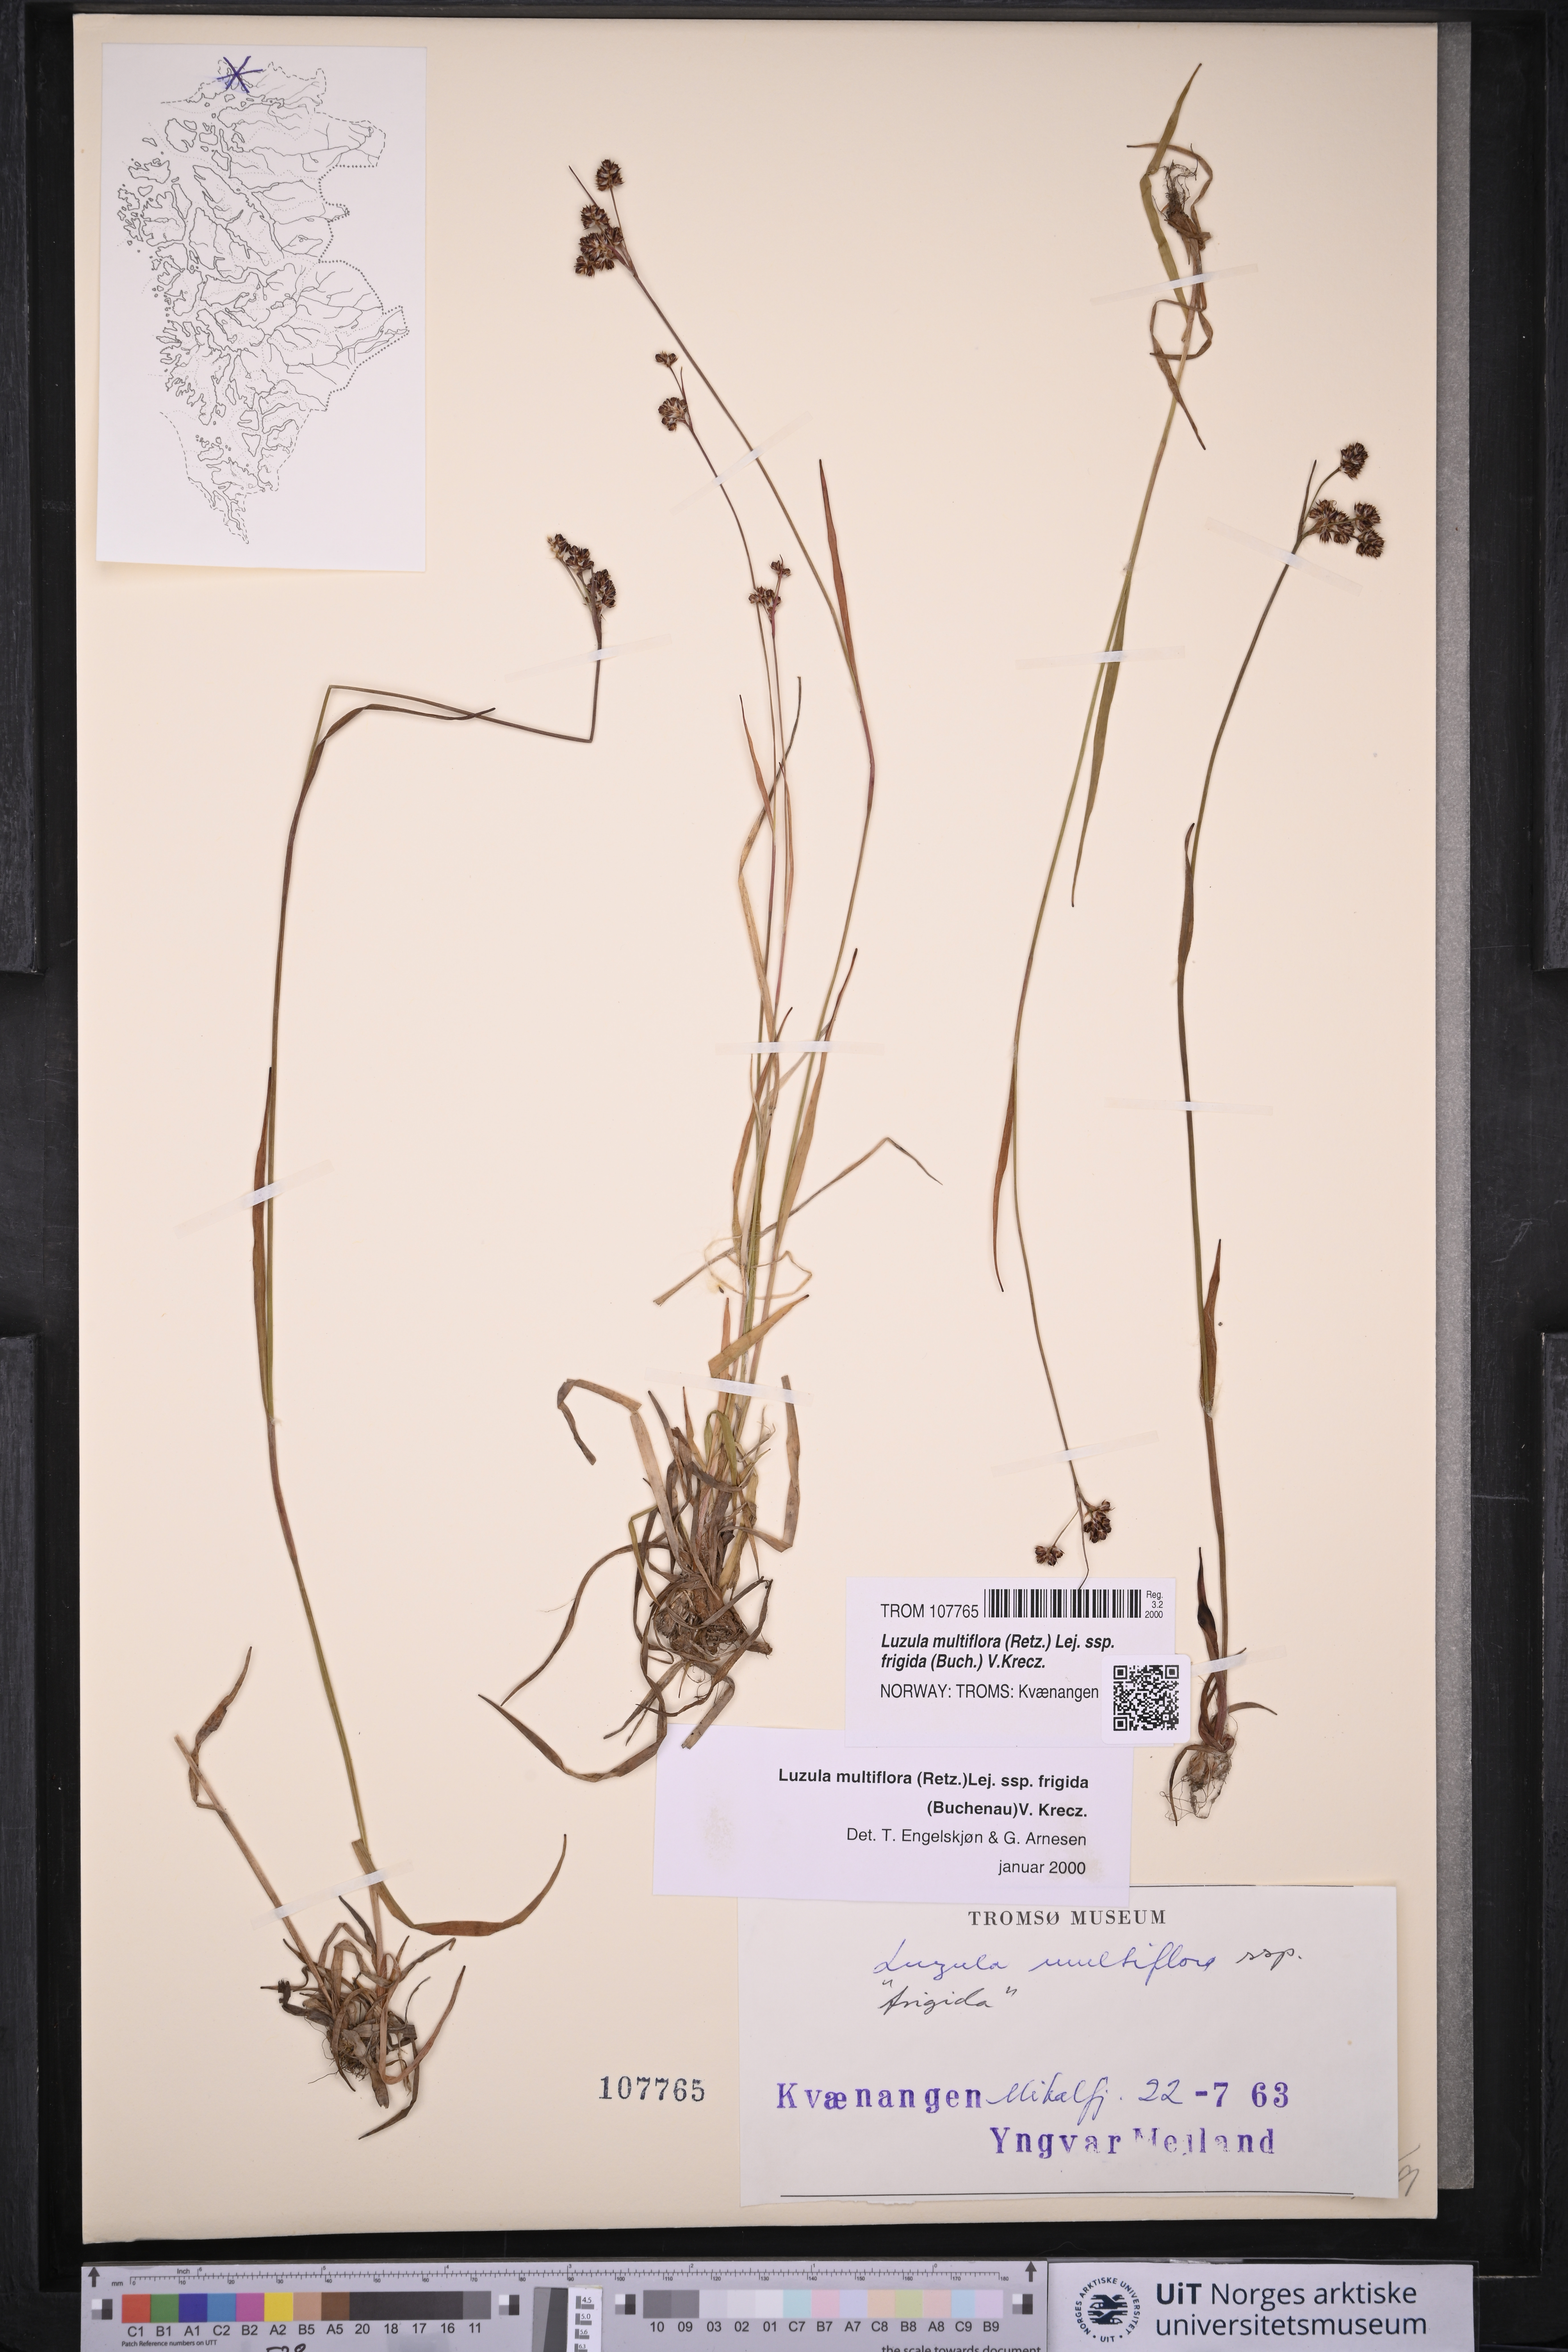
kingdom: Plantae
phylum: Tracheophyta
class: Liliopsida
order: Poales
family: Juncaceae
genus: Luzula
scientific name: Luzula multiflora
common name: Heath wood-rush
